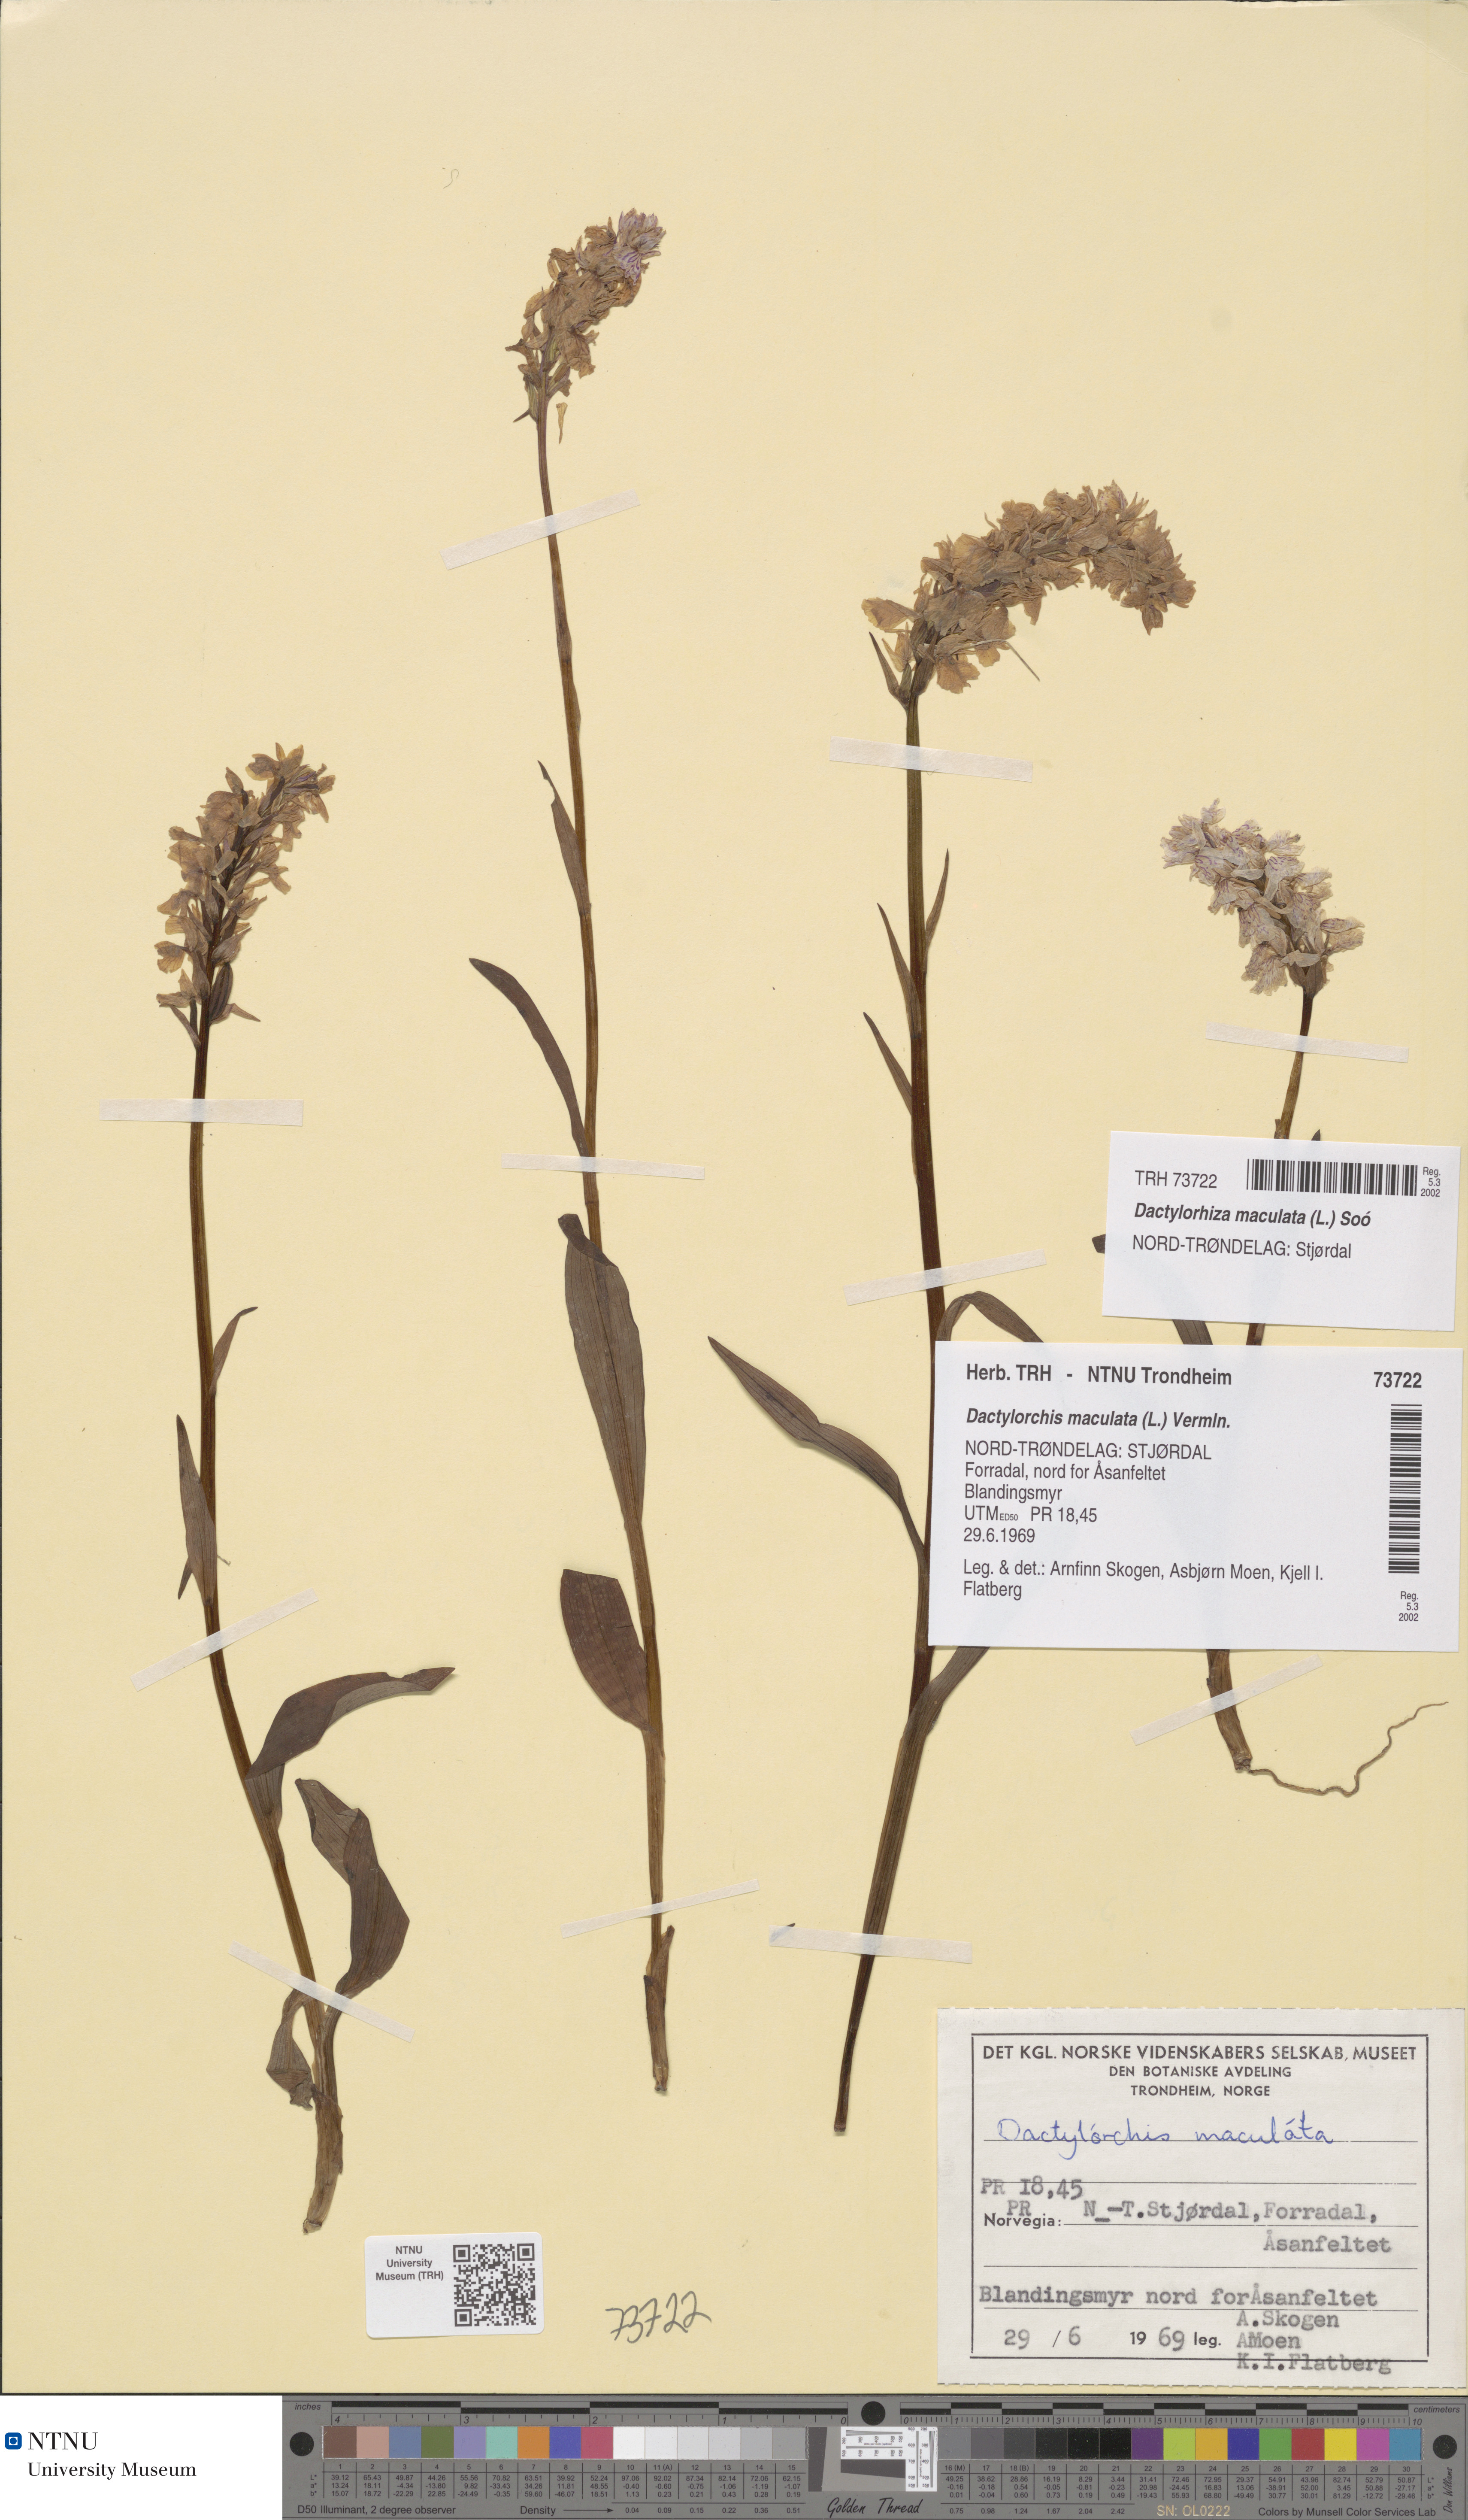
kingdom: Plantae
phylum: Tracheophyta
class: Liliopsida
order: Asparagales
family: Orchidaceae
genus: Dactylorhiza
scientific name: Dactylorhiza maculata
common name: Heath spotted-orchid
